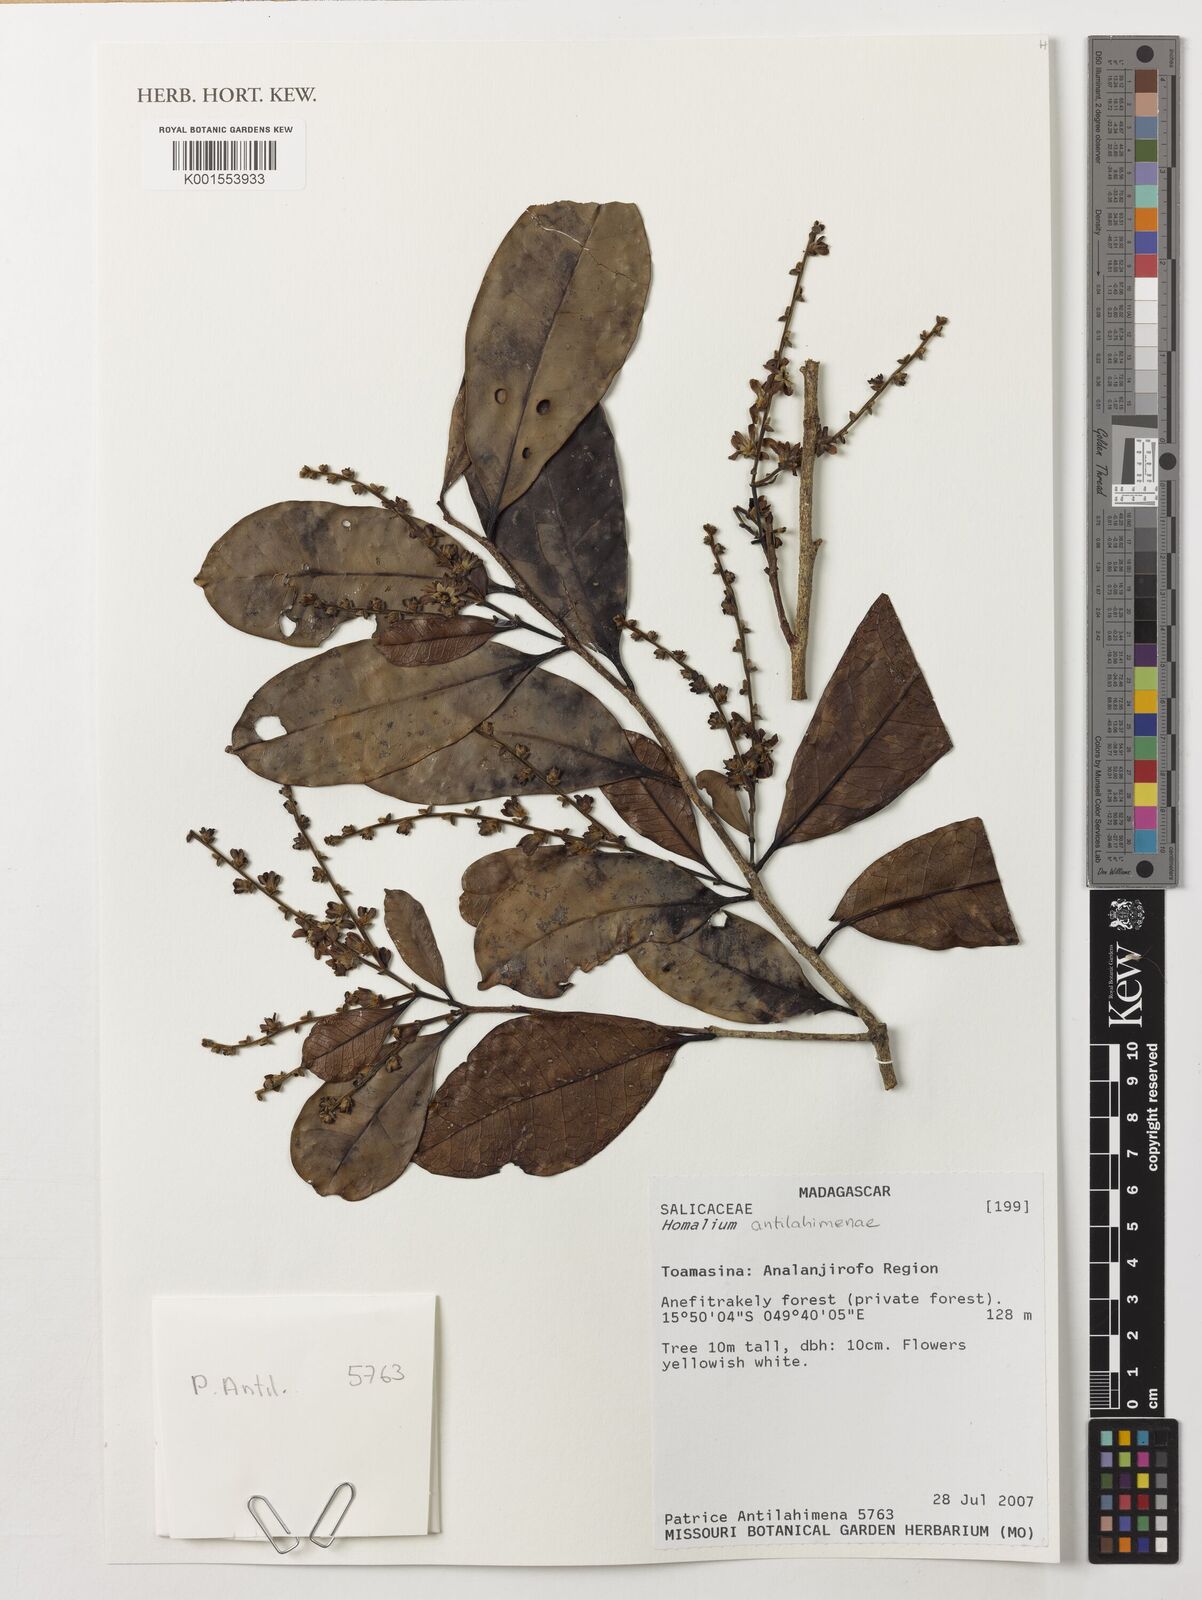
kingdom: Plantae
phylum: Tracheophyta
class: Magnoliopsida
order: Malpighiales
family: Salicaceae
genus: Homalium
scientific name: Homalium
